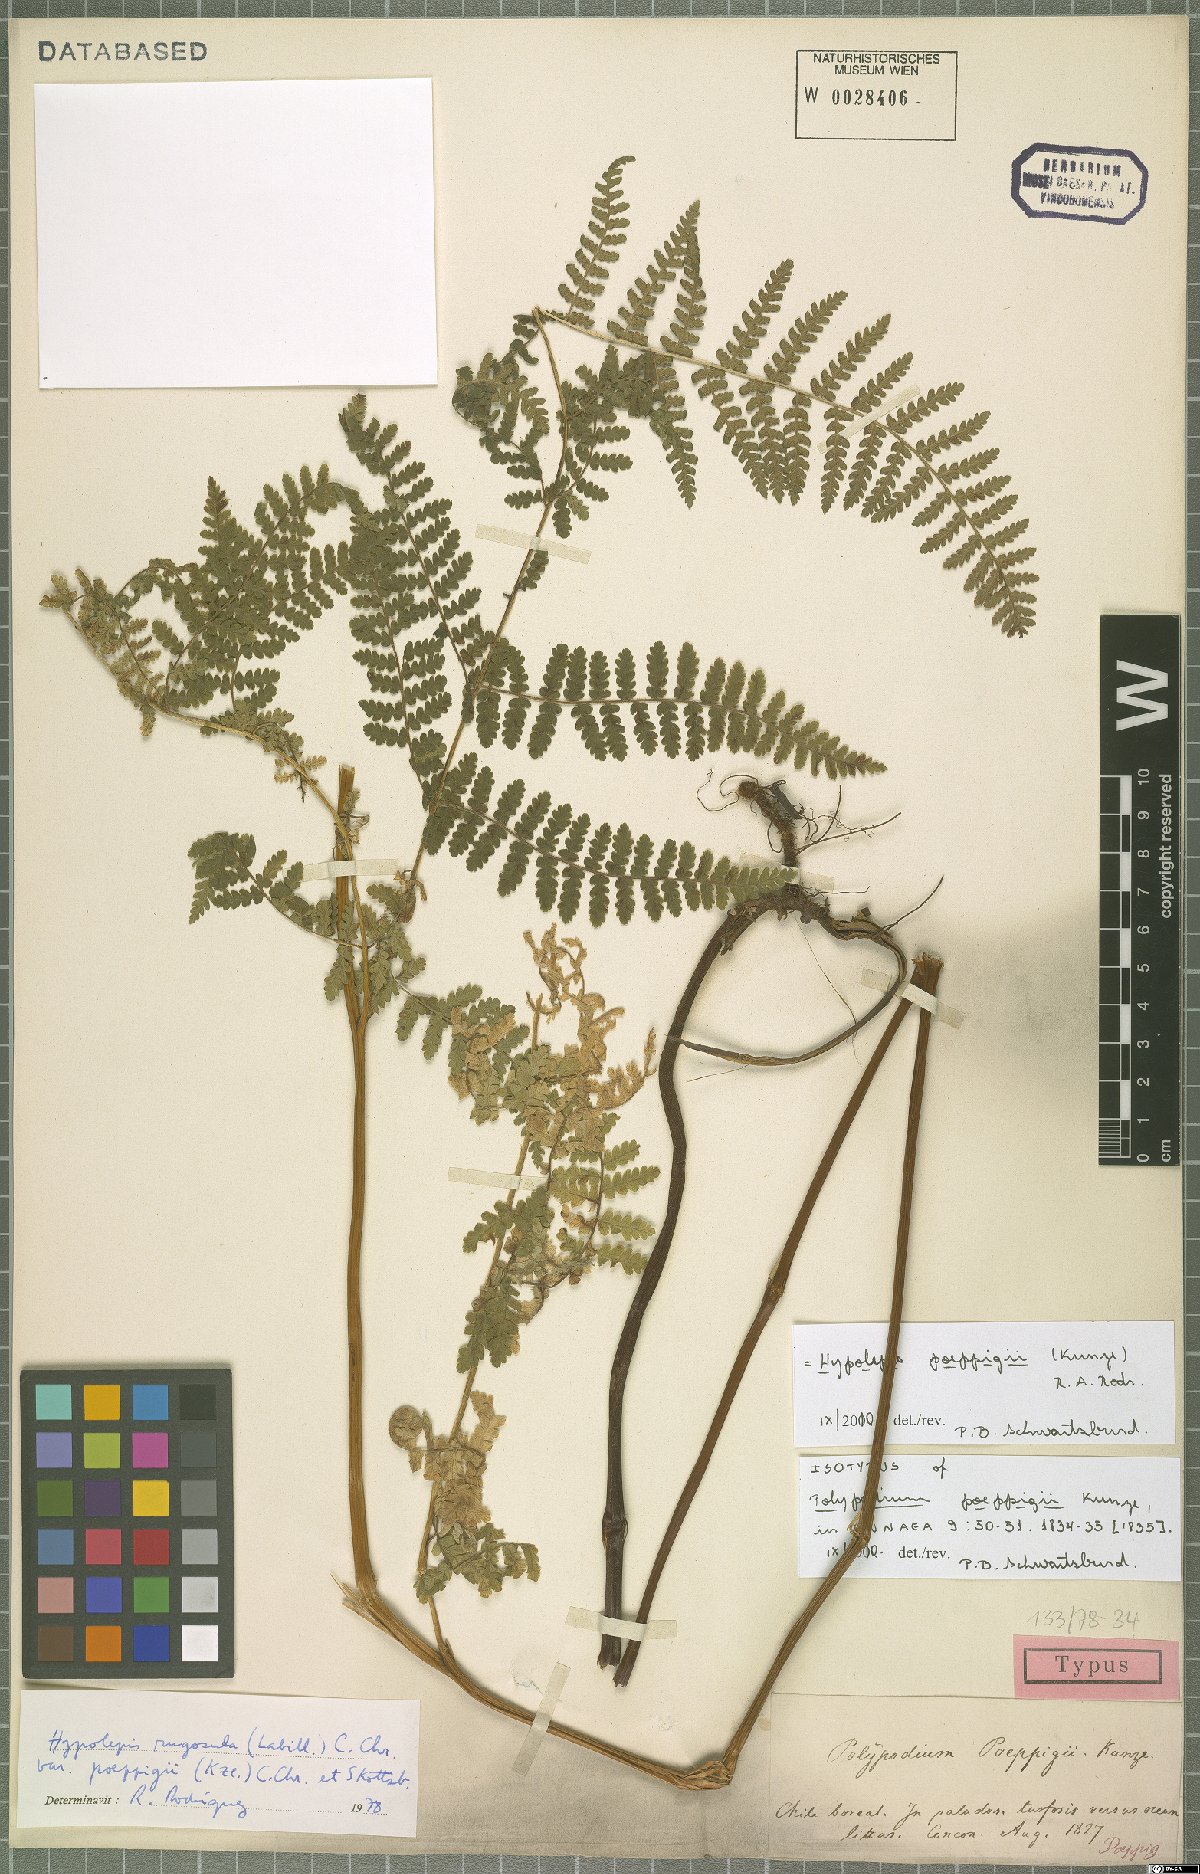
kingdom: Plantae
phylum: Tracheophyta
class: Polypodiopsida
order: Polypodiales
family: Dennstaedtiaceae
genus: Hypolepis
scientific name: Hypolepis poeppigii
